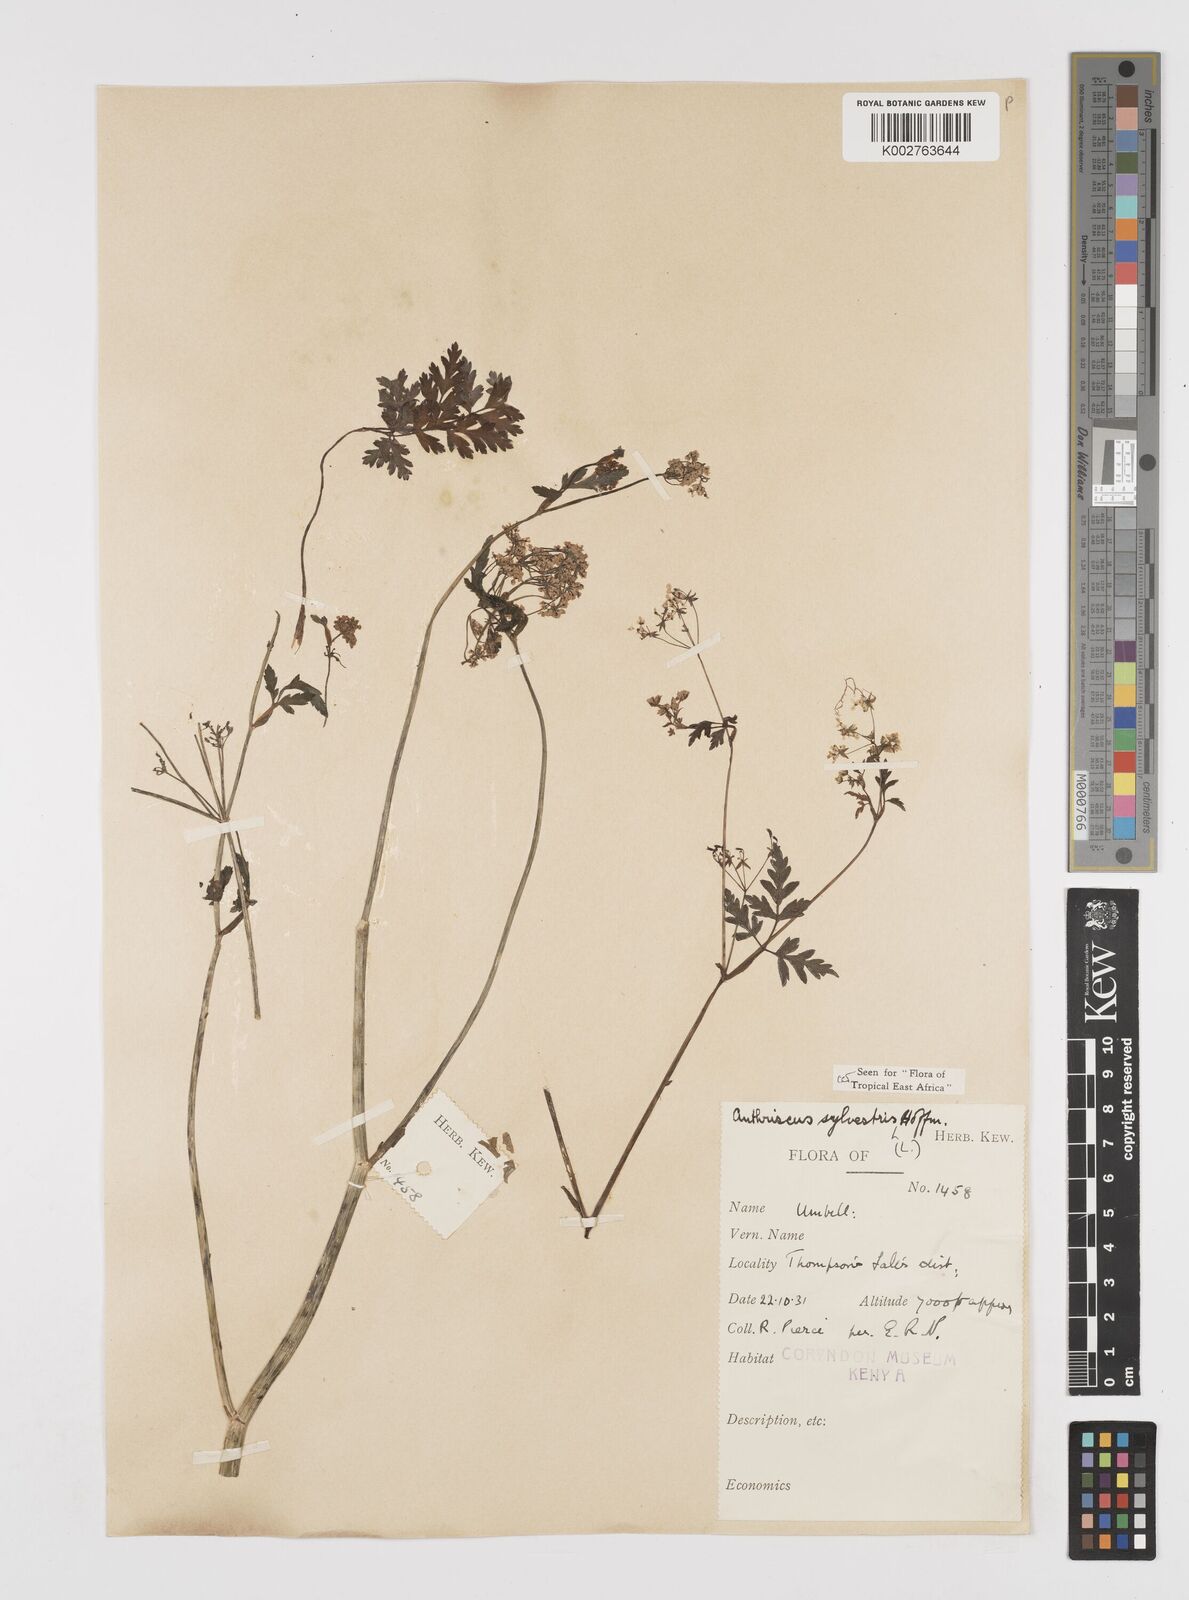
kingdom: Plantae
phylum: Tracheophyta
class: Magnoliopsida
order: Apiales
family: Apiaceae
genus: Anthriscus
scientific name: Anthriscus sylvestris
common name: Cow parsley
